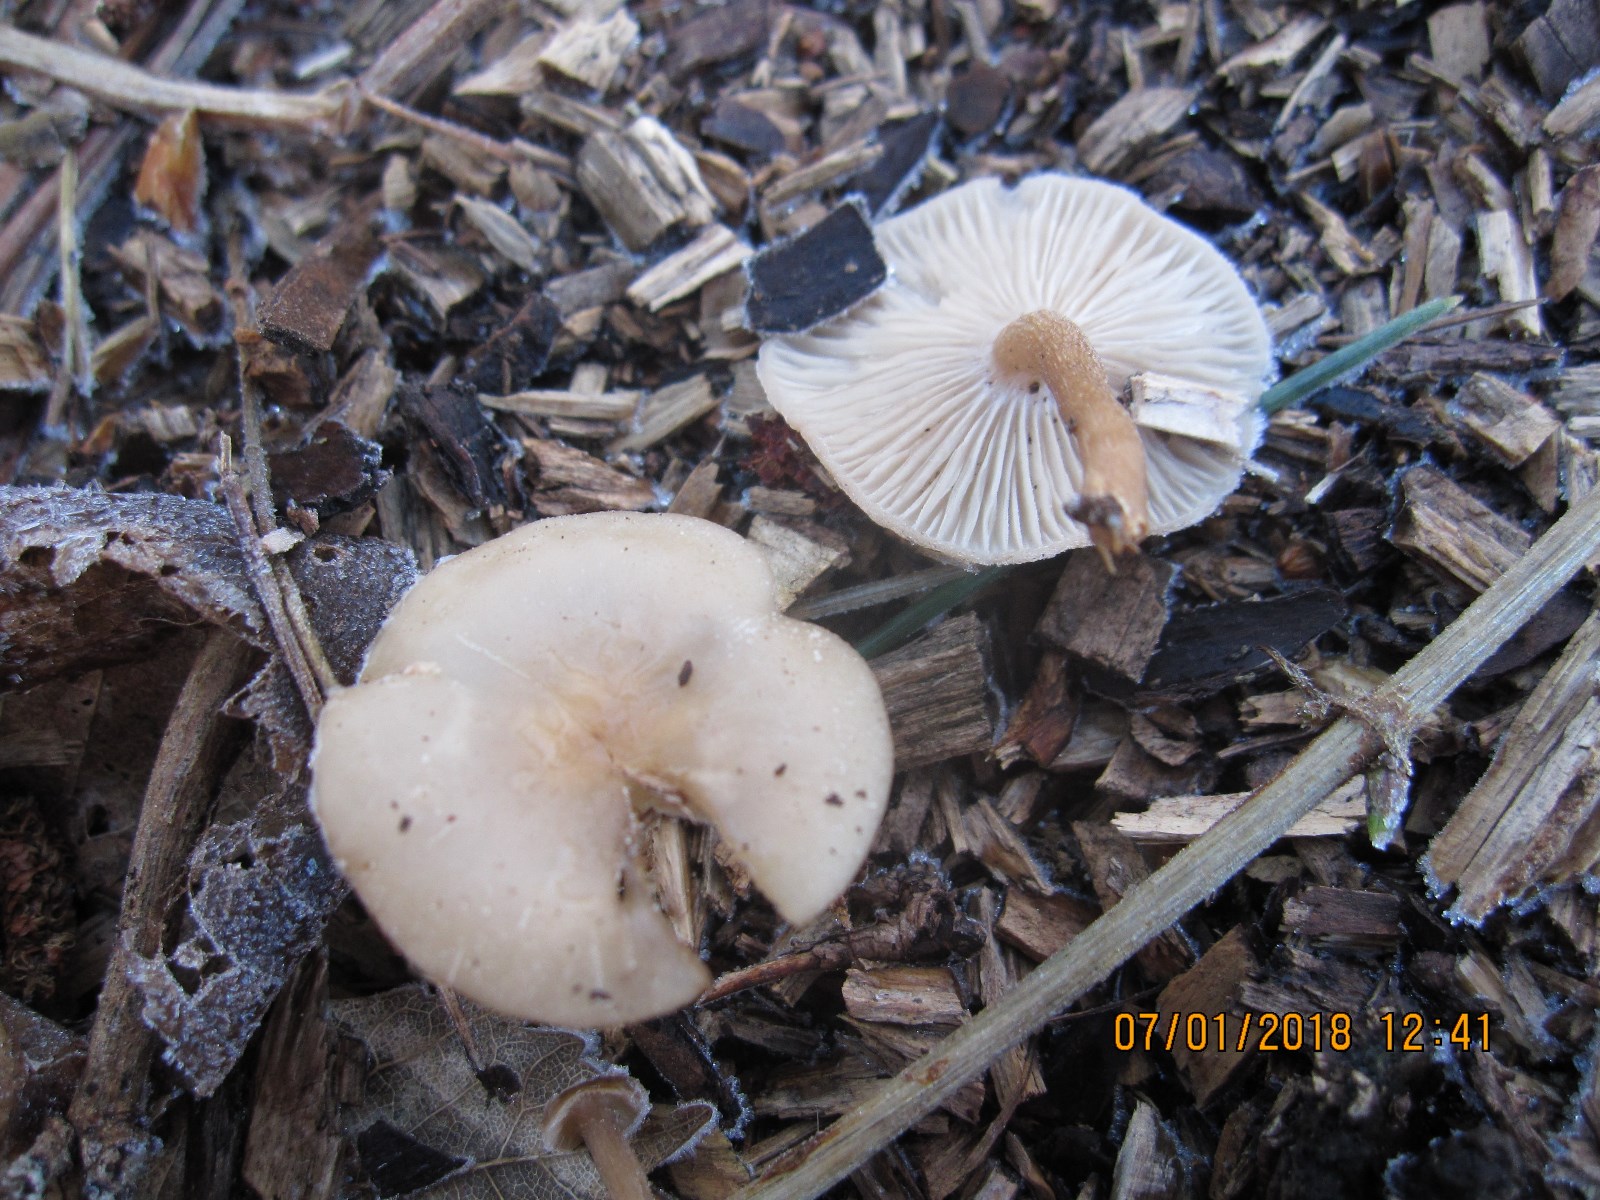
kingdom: Fungi
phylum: Basidiomycota
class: Agaricomycetes
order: Agaricales
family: Tricholomataceae
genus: Clitocybe
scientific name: Clitocybe fragrans
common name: vellugtende tragthat
